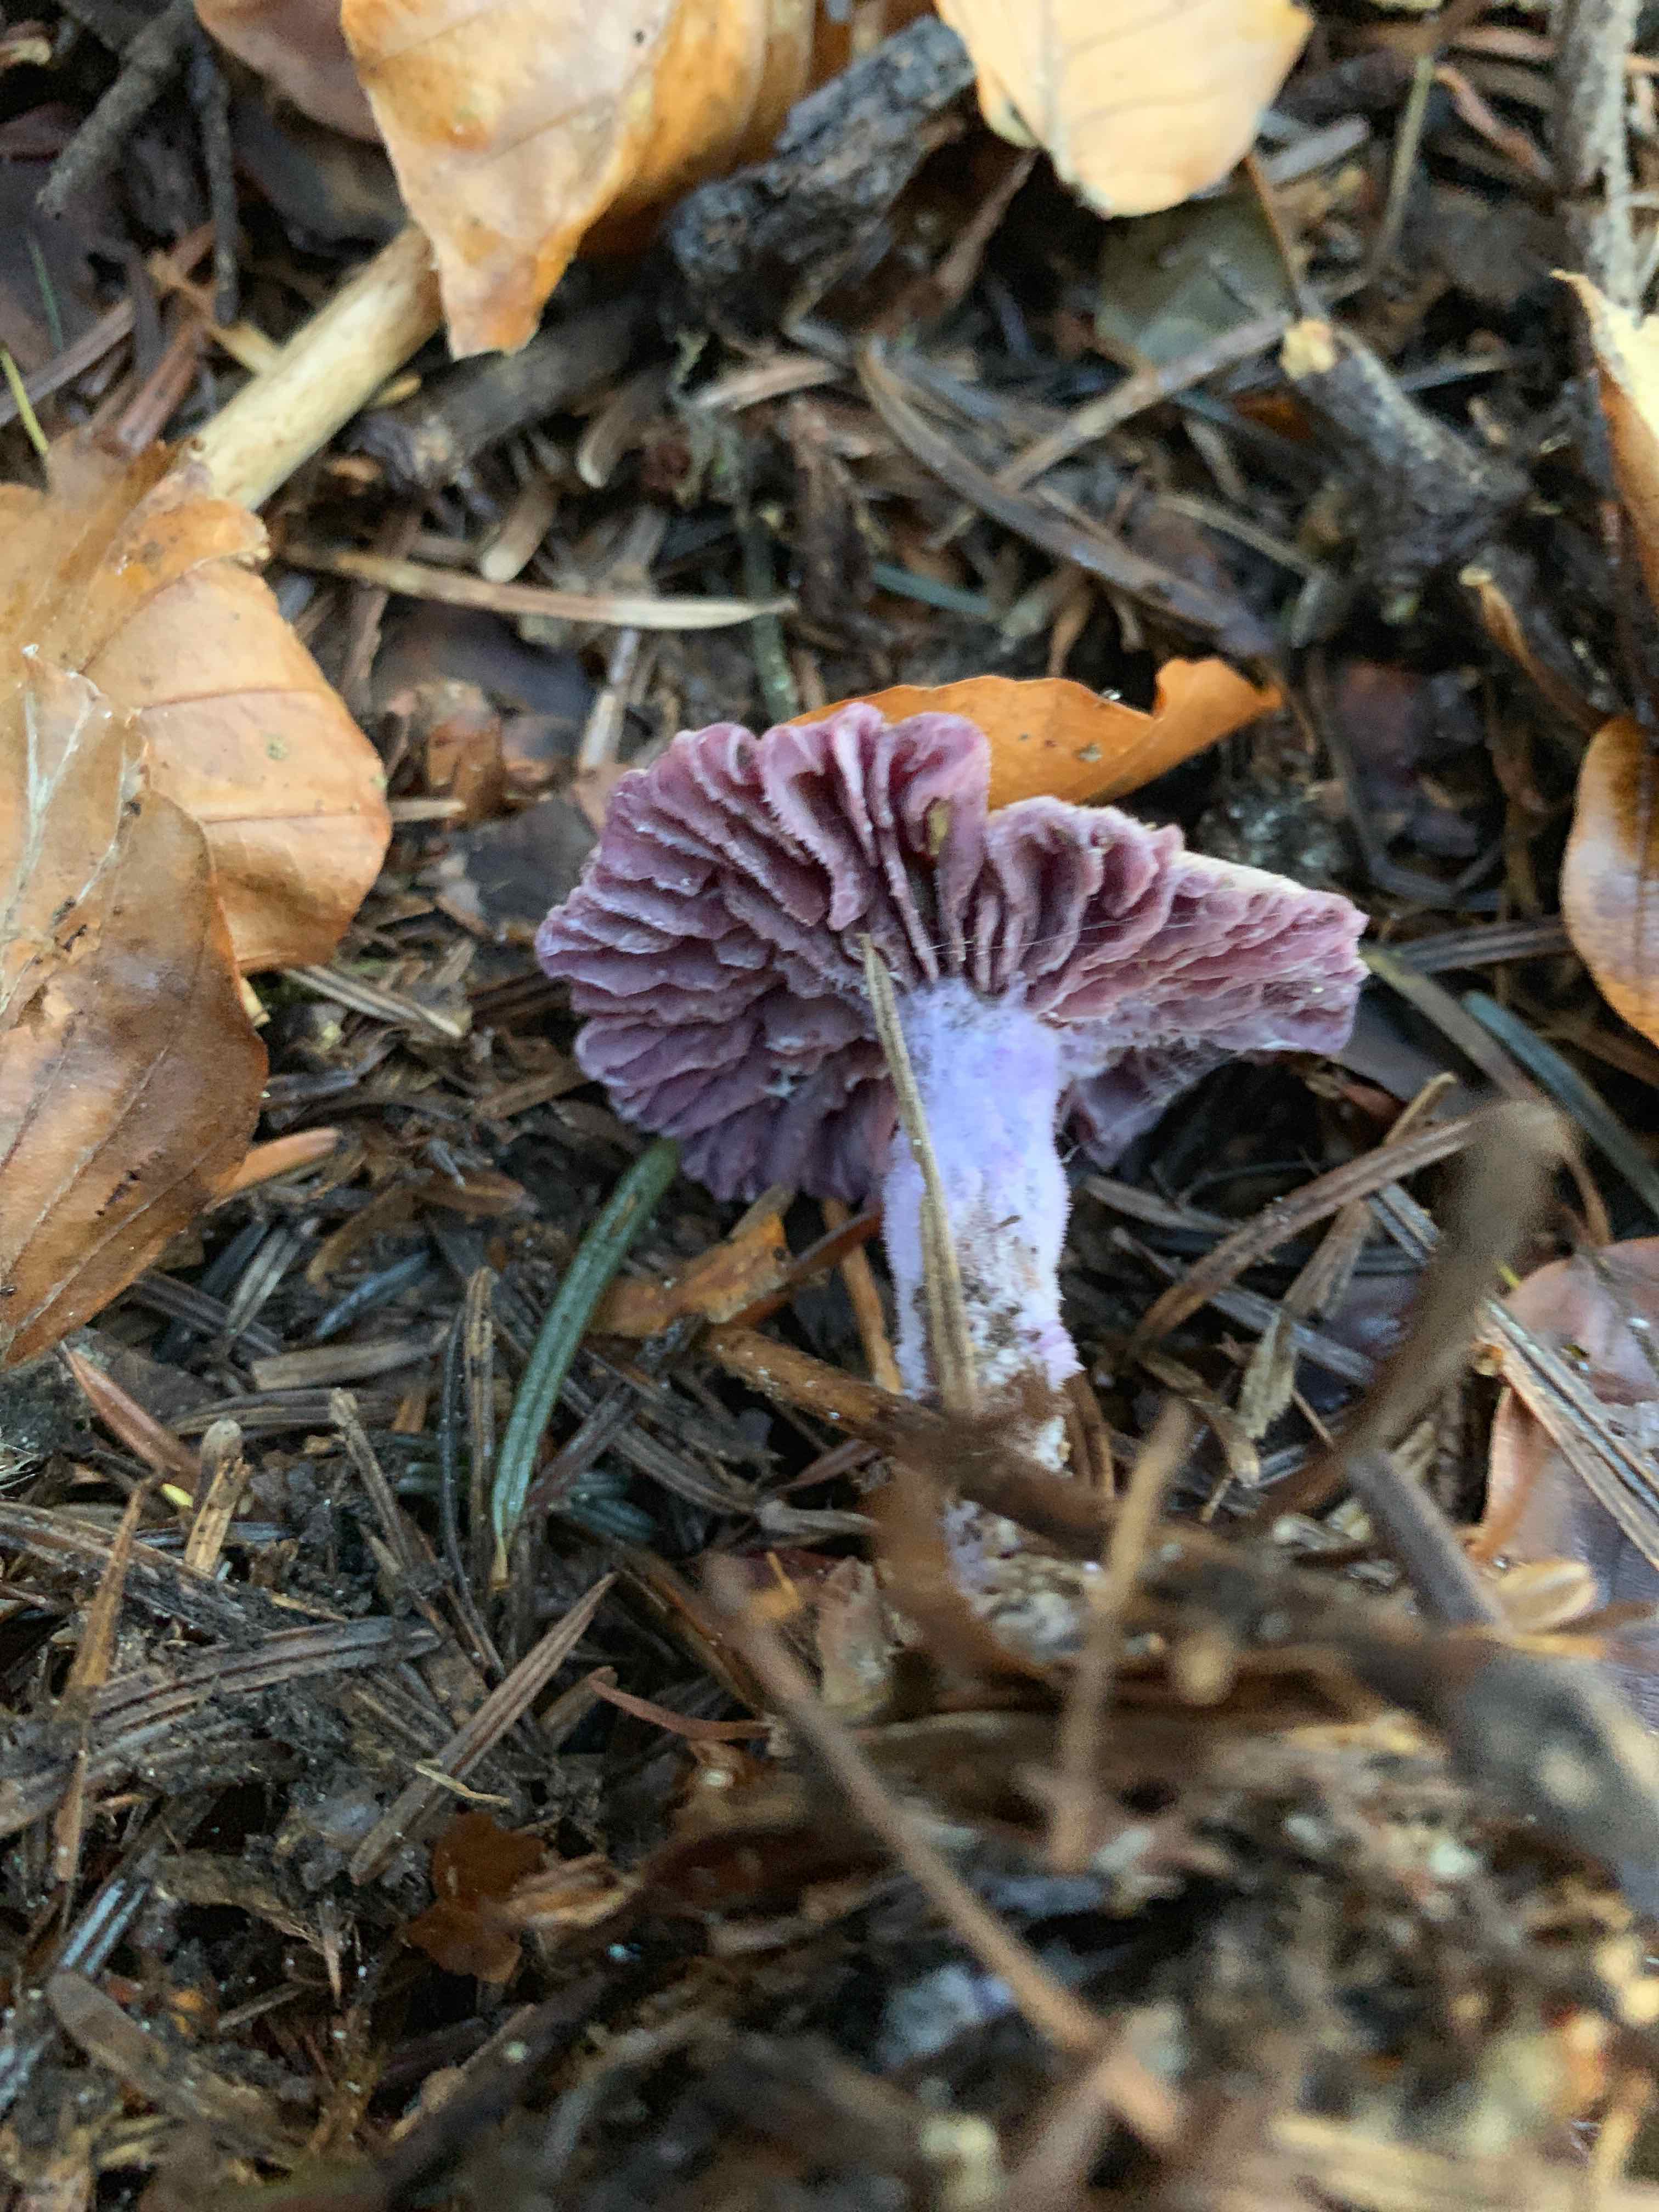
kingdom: Fungi
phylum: Basidiomycota
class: Agaricomycetes
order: Agaricales
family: Hydnangiaceae
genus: Laccaria
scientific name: Laccaria amethystina
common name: violet ametysthat
